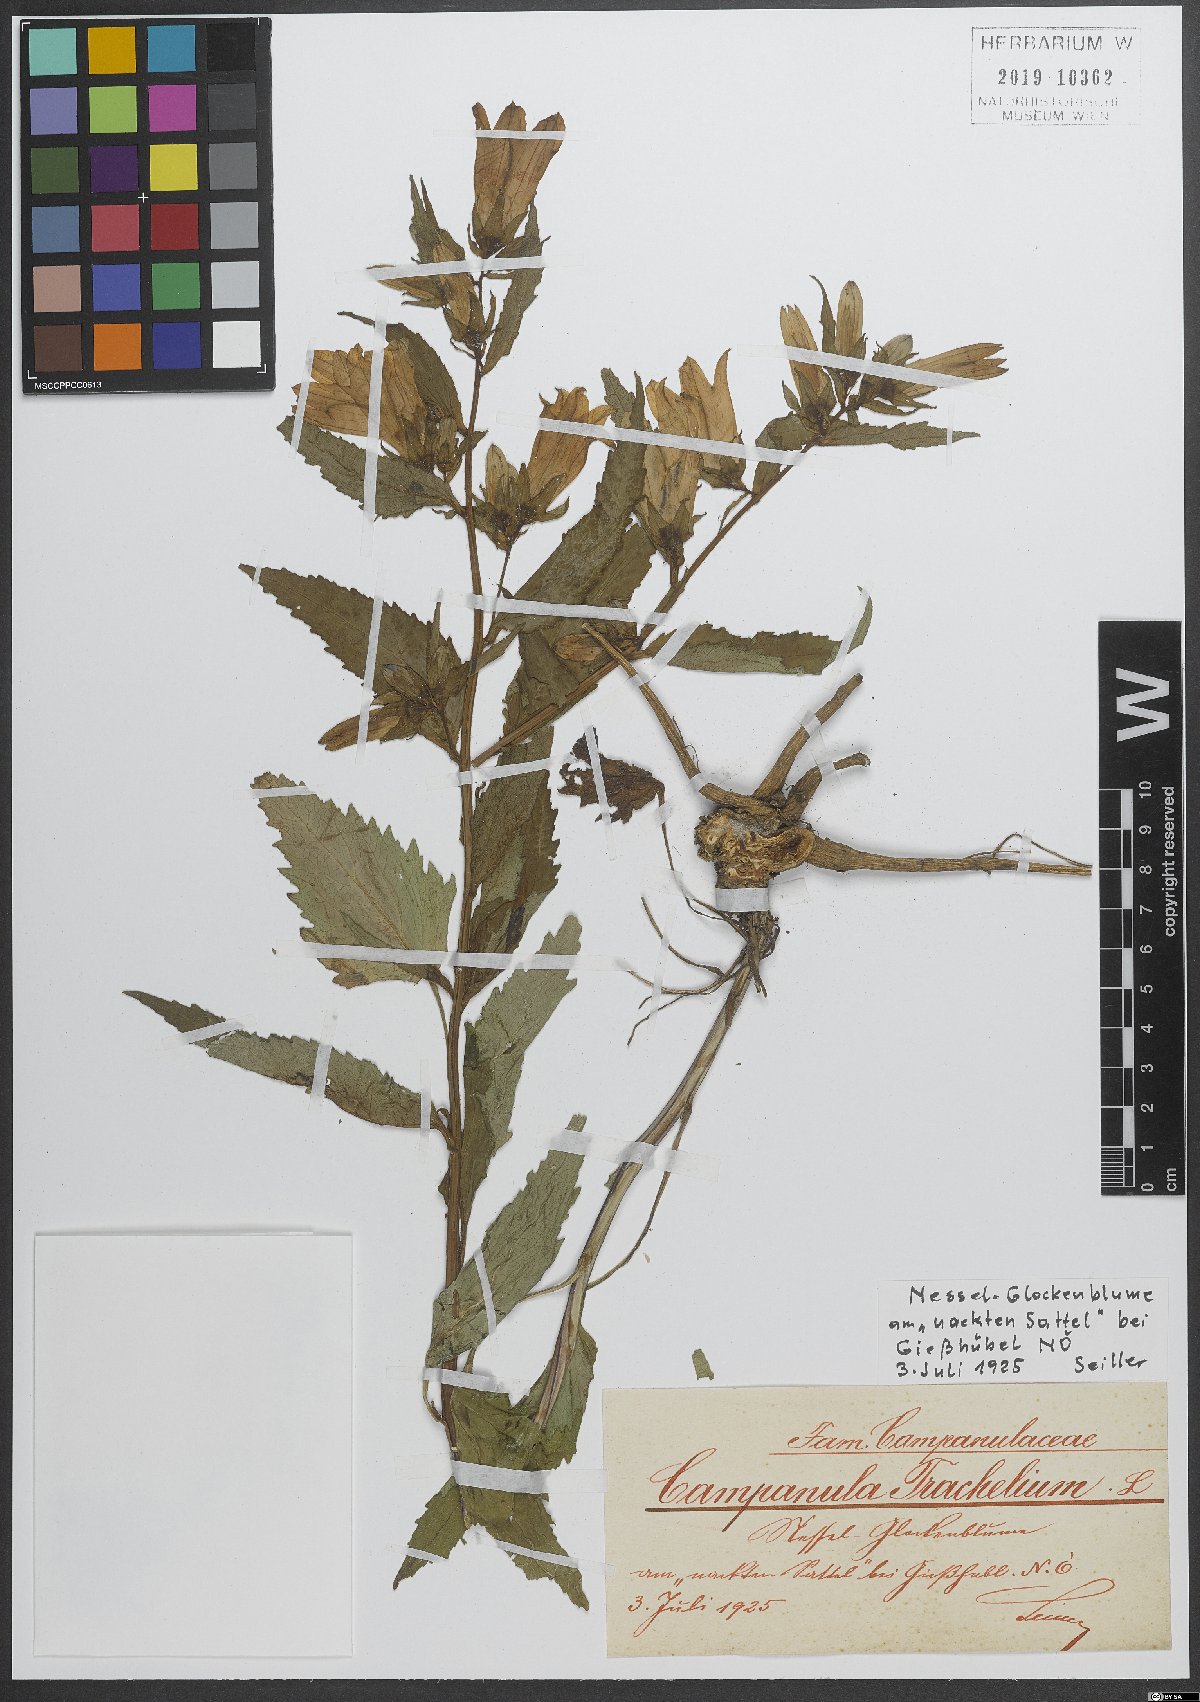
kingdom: Plantae
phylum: Tracheophyta
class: Magnoliopsida
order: Asterales
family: Campanulaceae
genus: Campanula
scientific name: Campanula trachelium
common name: Nettle-leaved bellflower
